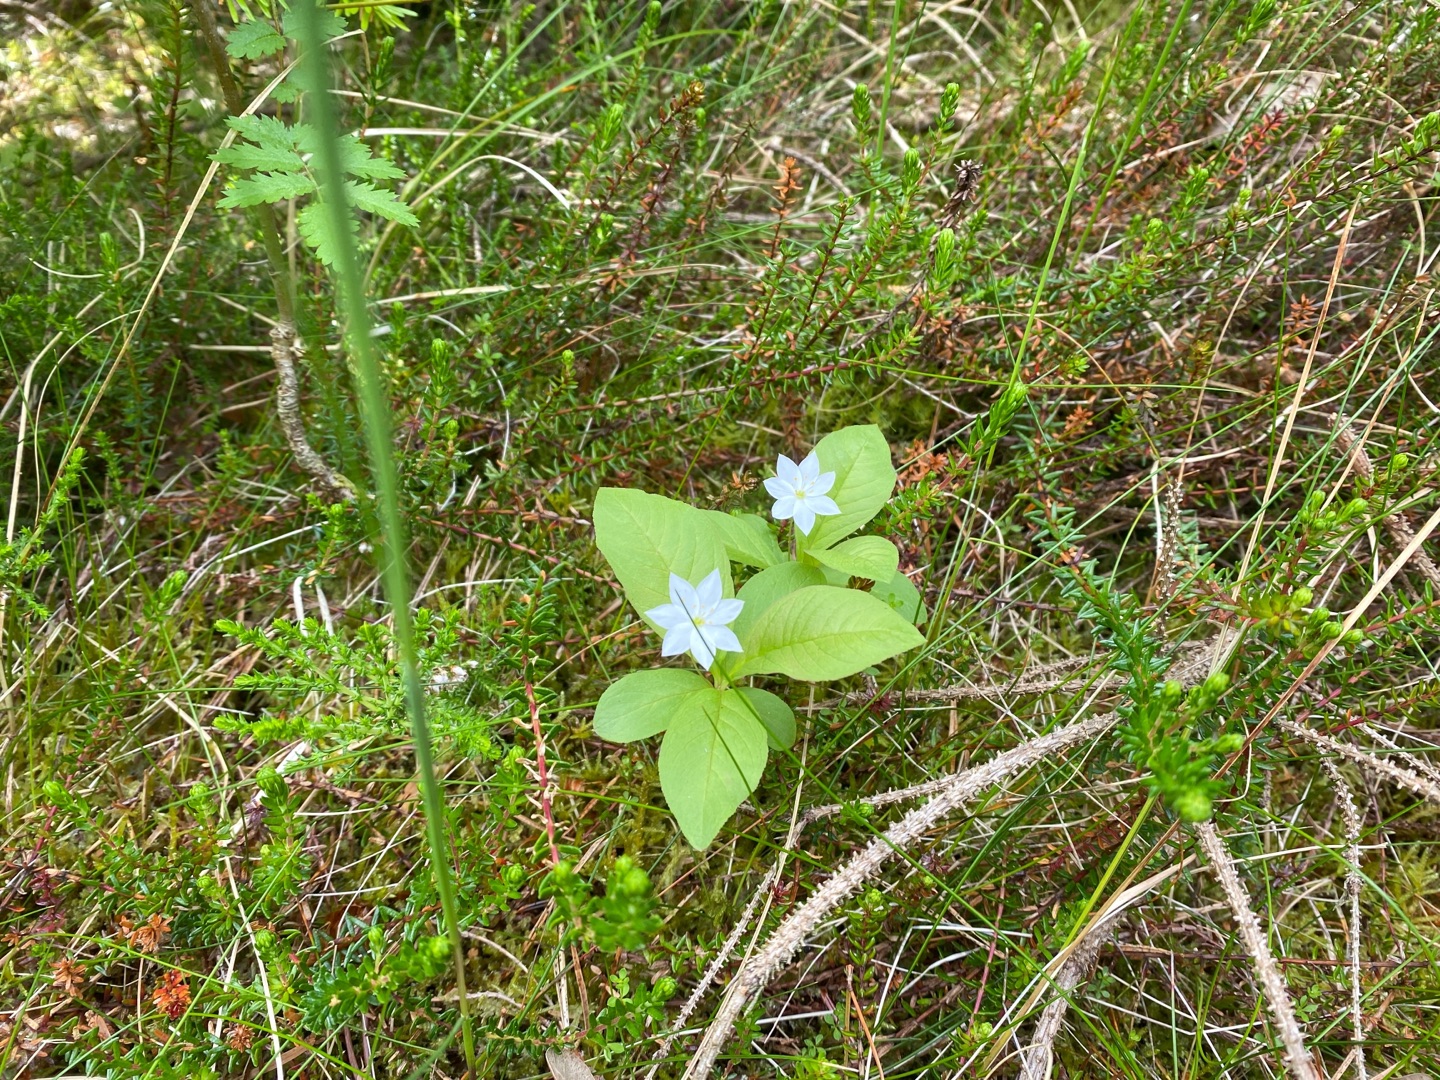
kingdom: Plantae
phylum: Tracheophyta
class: Magnoliopsida
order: Ericales
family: Primulaceae
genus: Lysimachia
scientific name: Lysimachia europaea
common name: Skovstjerne
